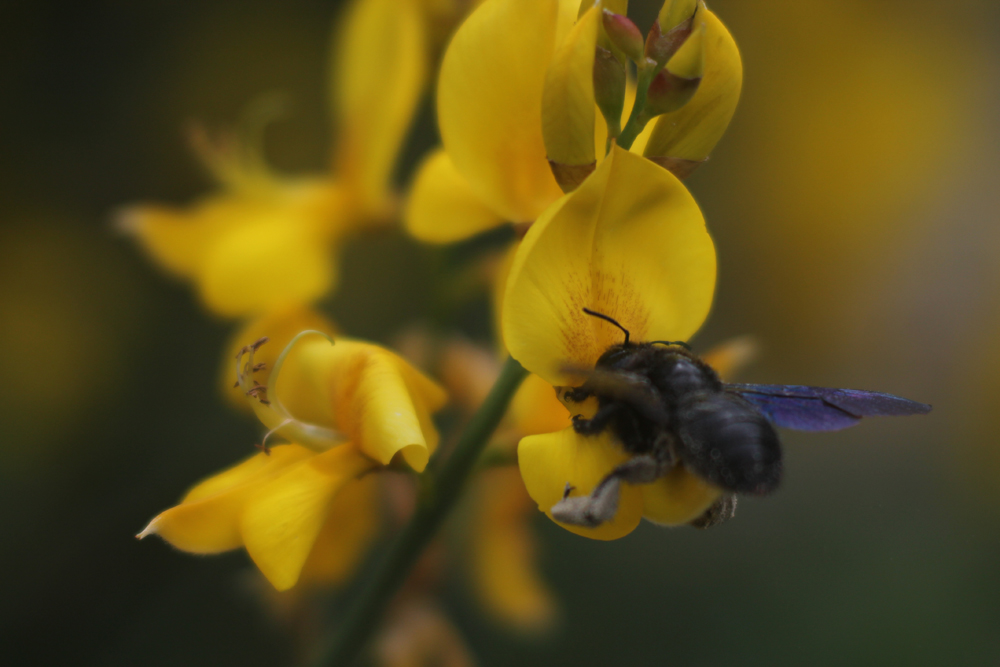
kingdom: Animalia
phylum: Arthropoda
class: Insecta
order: Hymenoptera
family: Apidae
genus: Xylocopa
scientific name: Xylocopa violacea
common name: Violet carpenter bee
